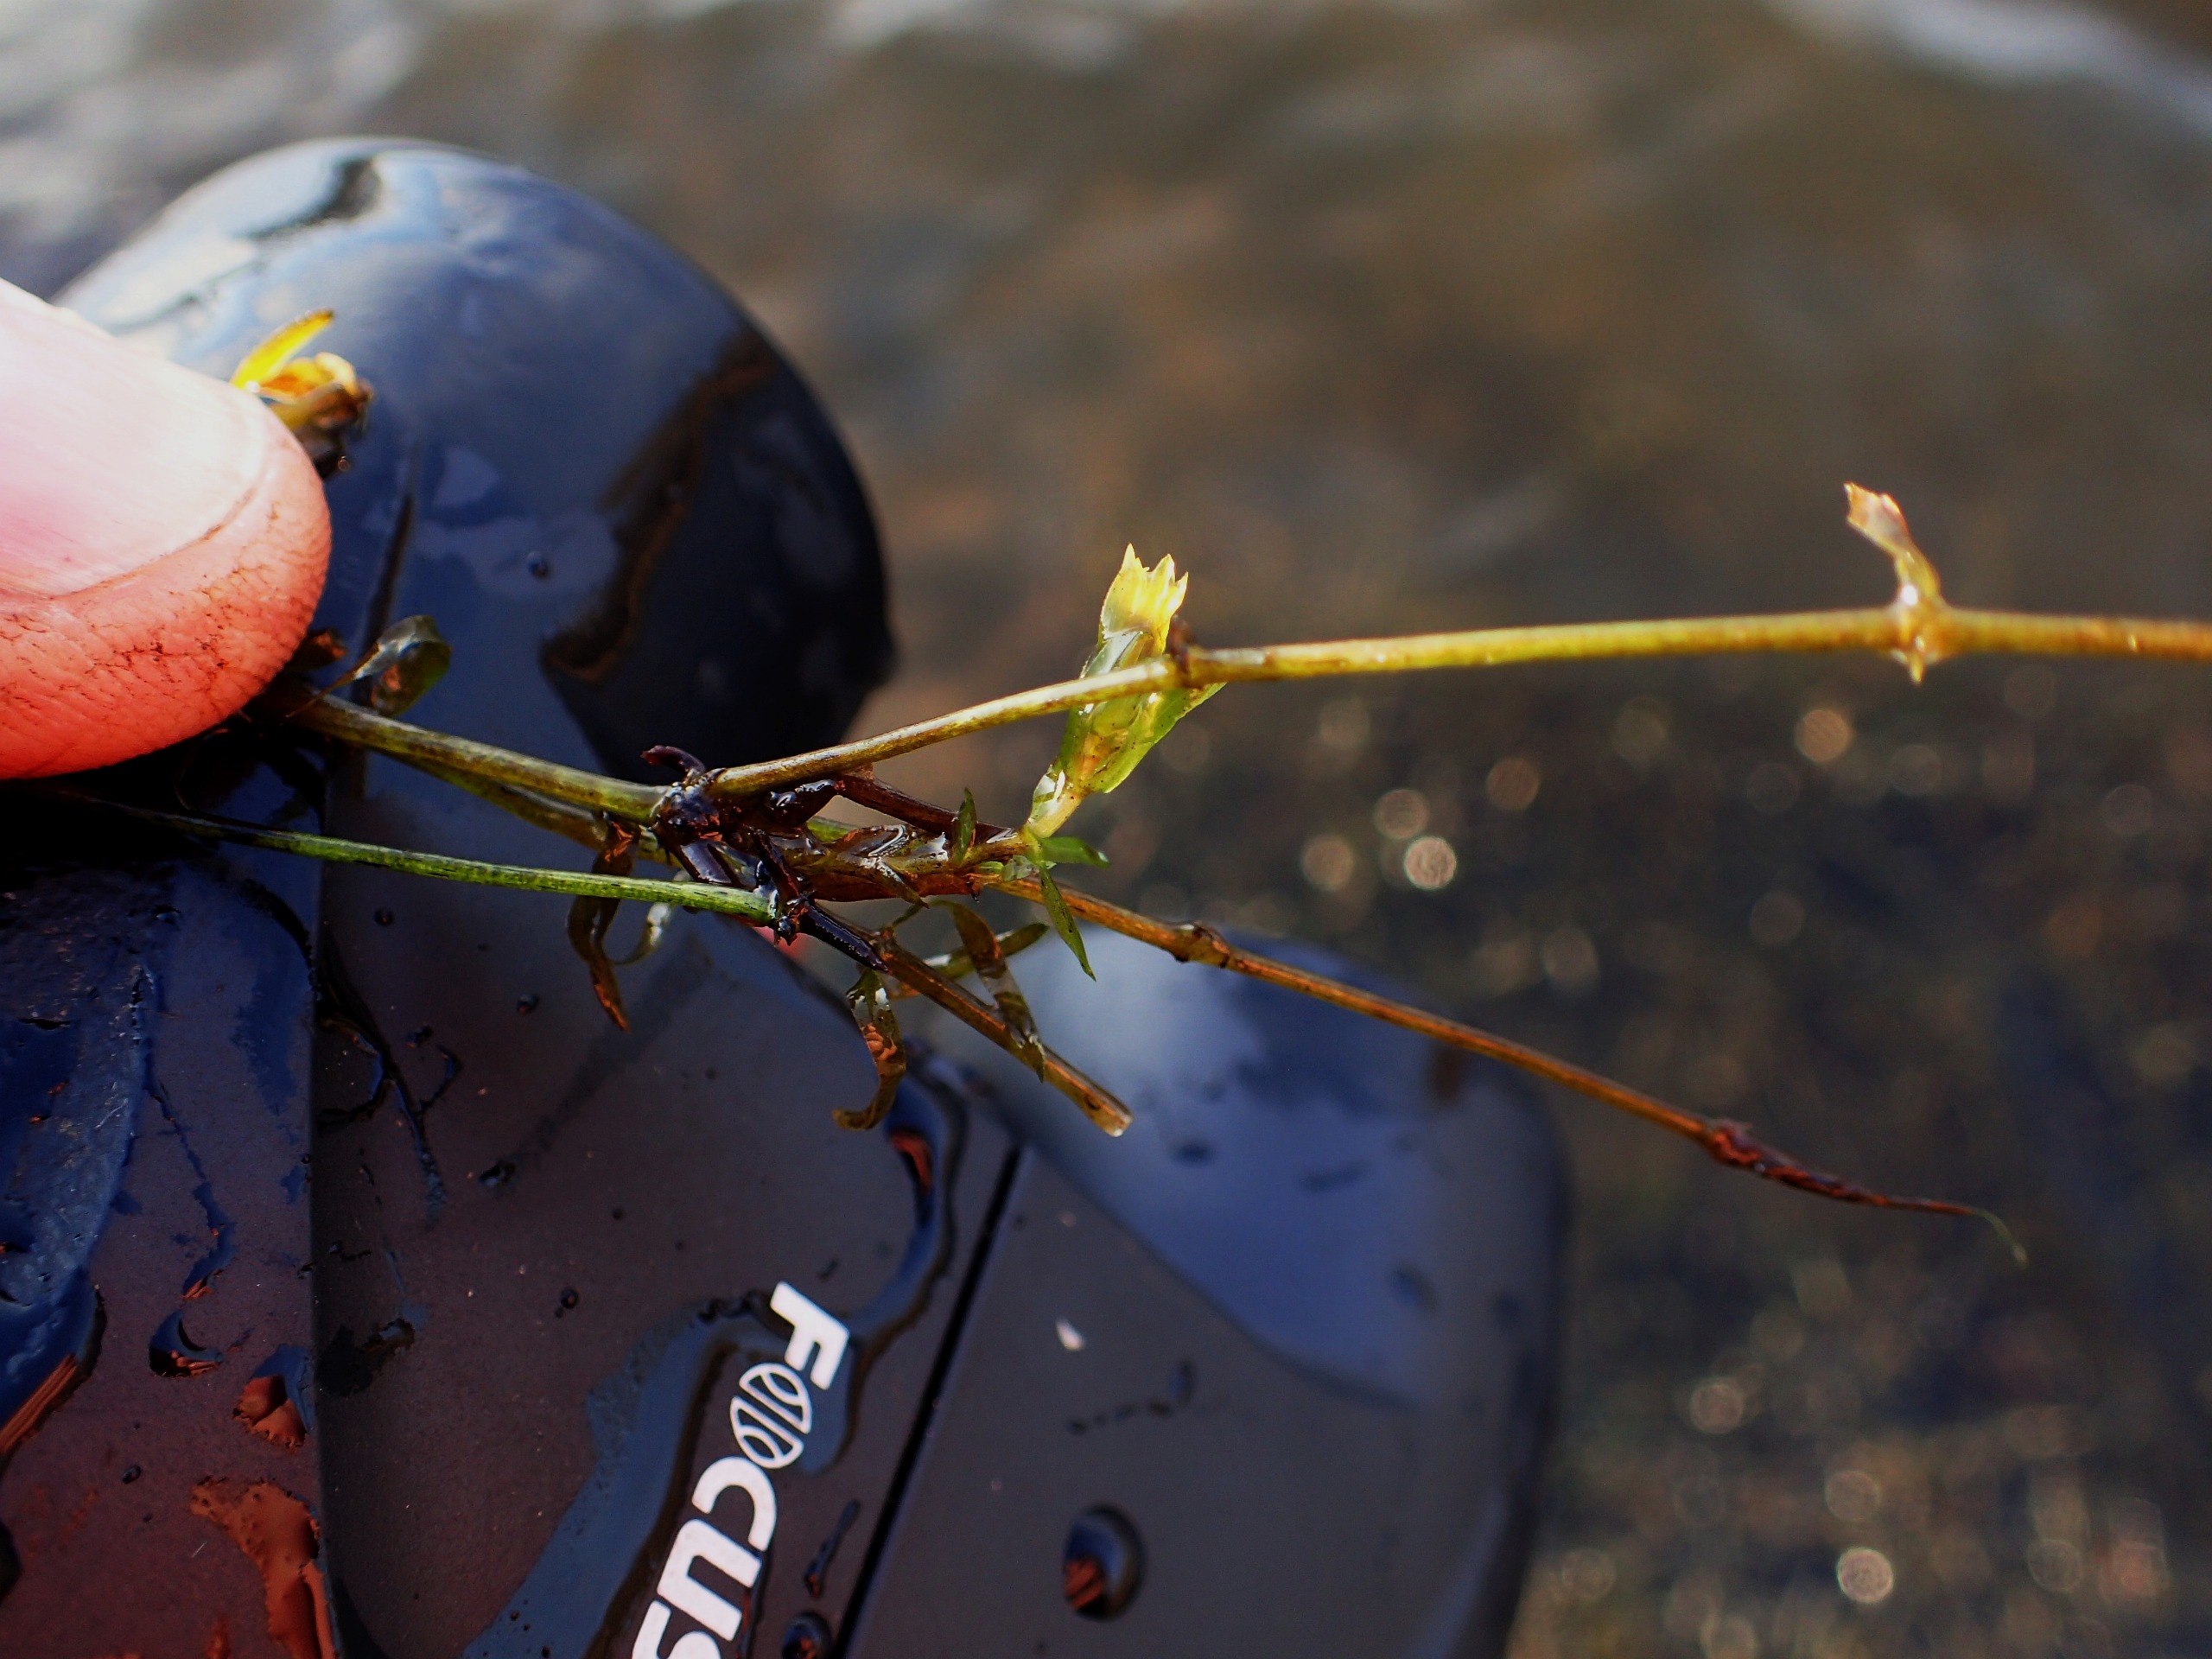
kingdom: Plantae
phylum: Tracheophyta
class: Liliopsida
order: Alismatales
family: Hydrocharitaceae
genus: Elodea
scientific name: Elodea nuttallii
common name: Smalbladet vandpest
